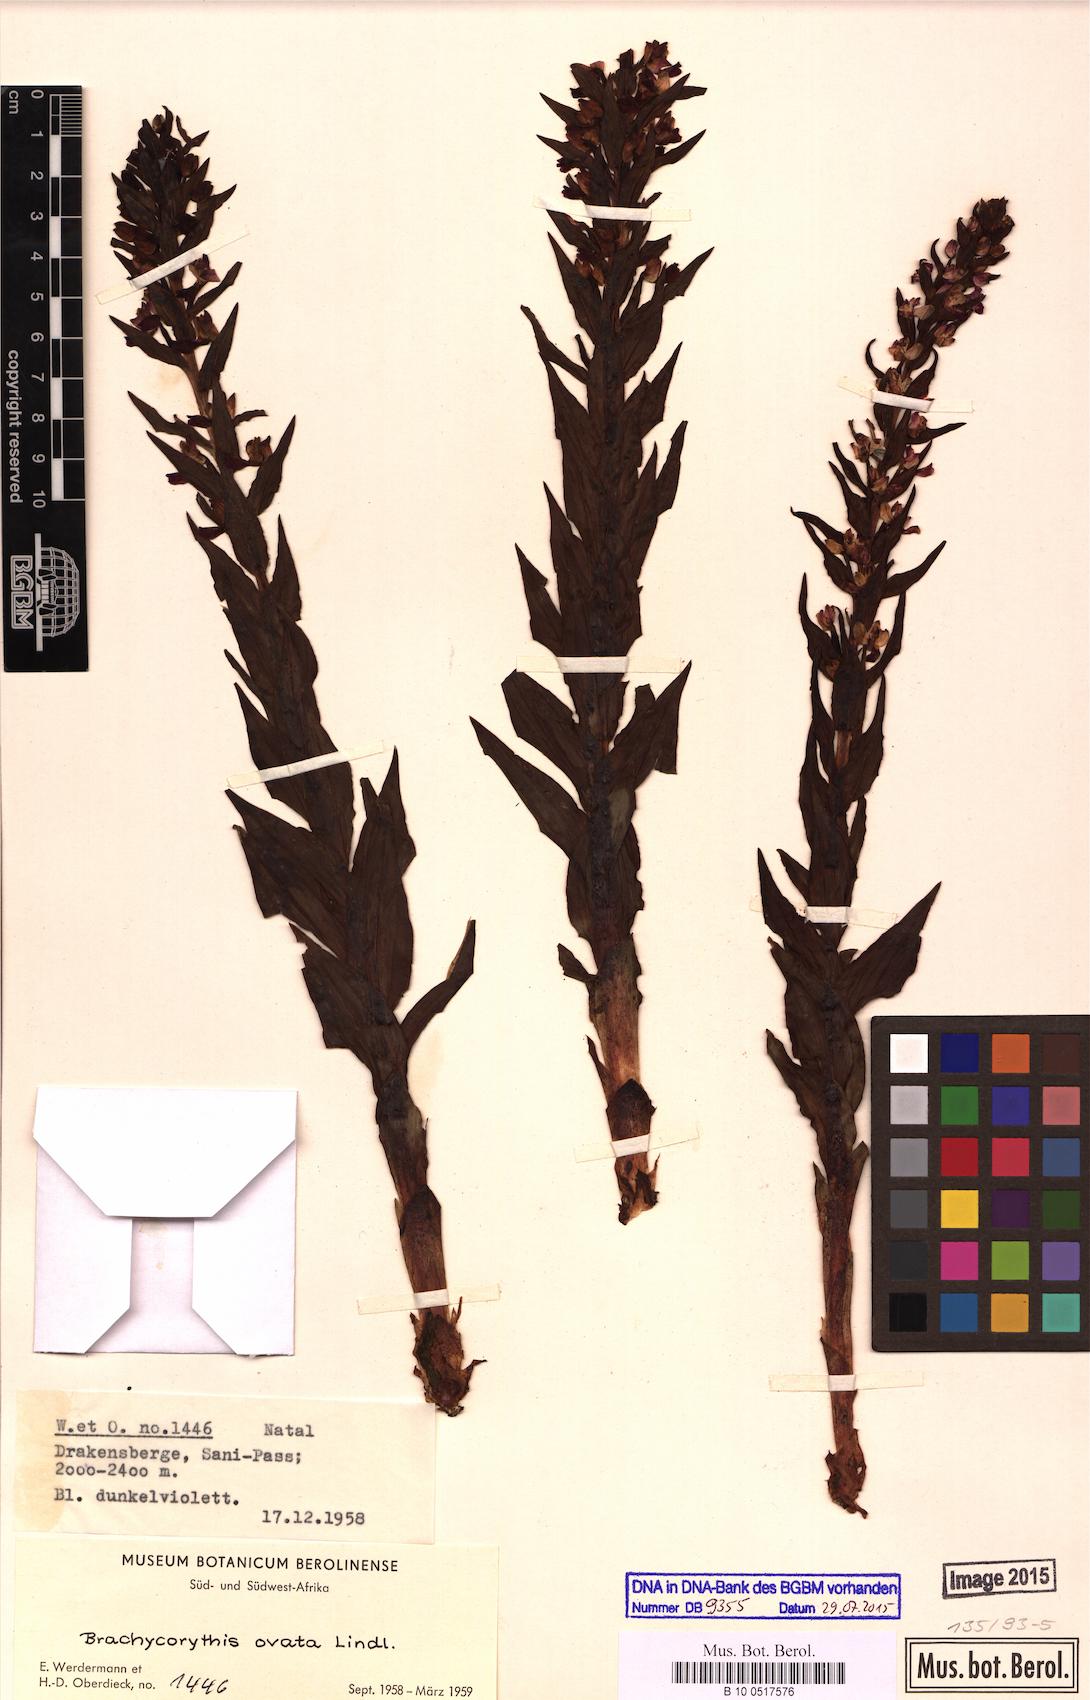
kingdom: Plantae
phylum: Tracheophyta
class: Liliopsida
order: Asparagales
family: Orchidaceae
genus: Brachycorythis
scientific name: Brachycorythis ovata
